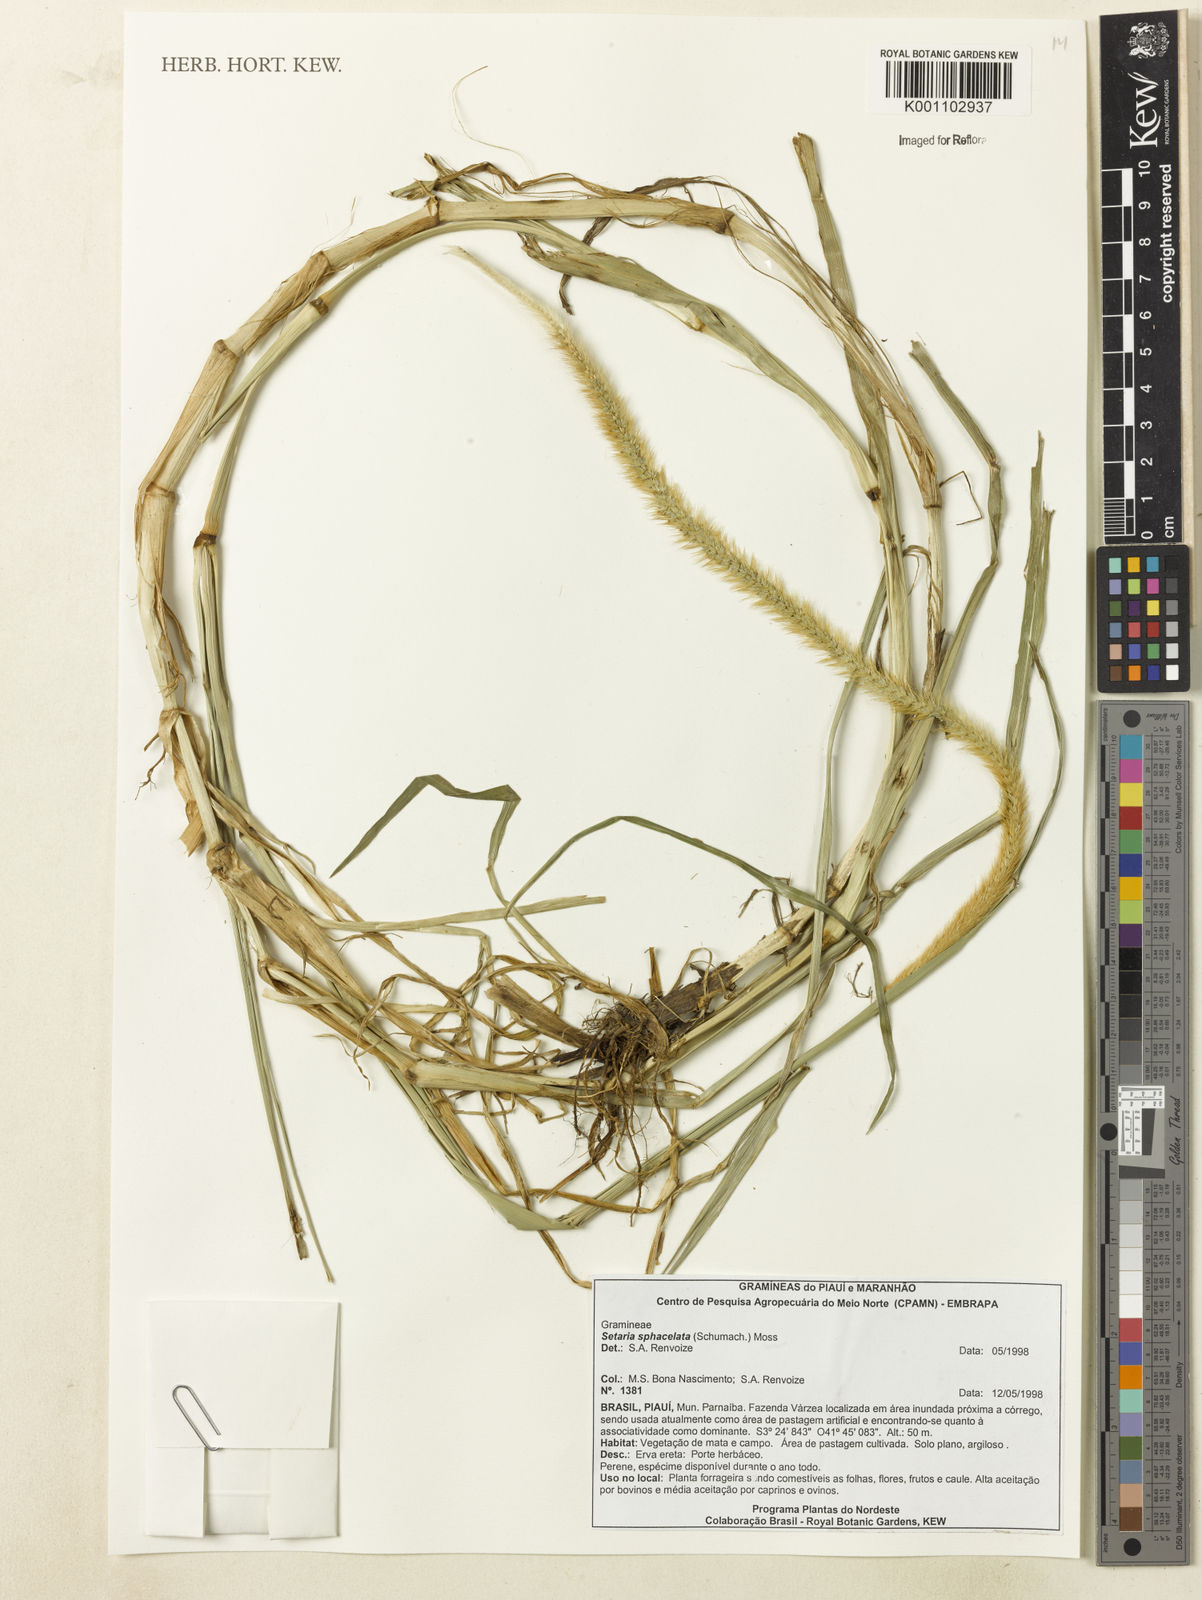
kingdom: Plantae
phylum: Tracheophyta
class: Liliopsida
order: Poales
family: Poaceae
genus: Setaria
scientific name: Setaria sphacelata
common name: African bristlegrass
